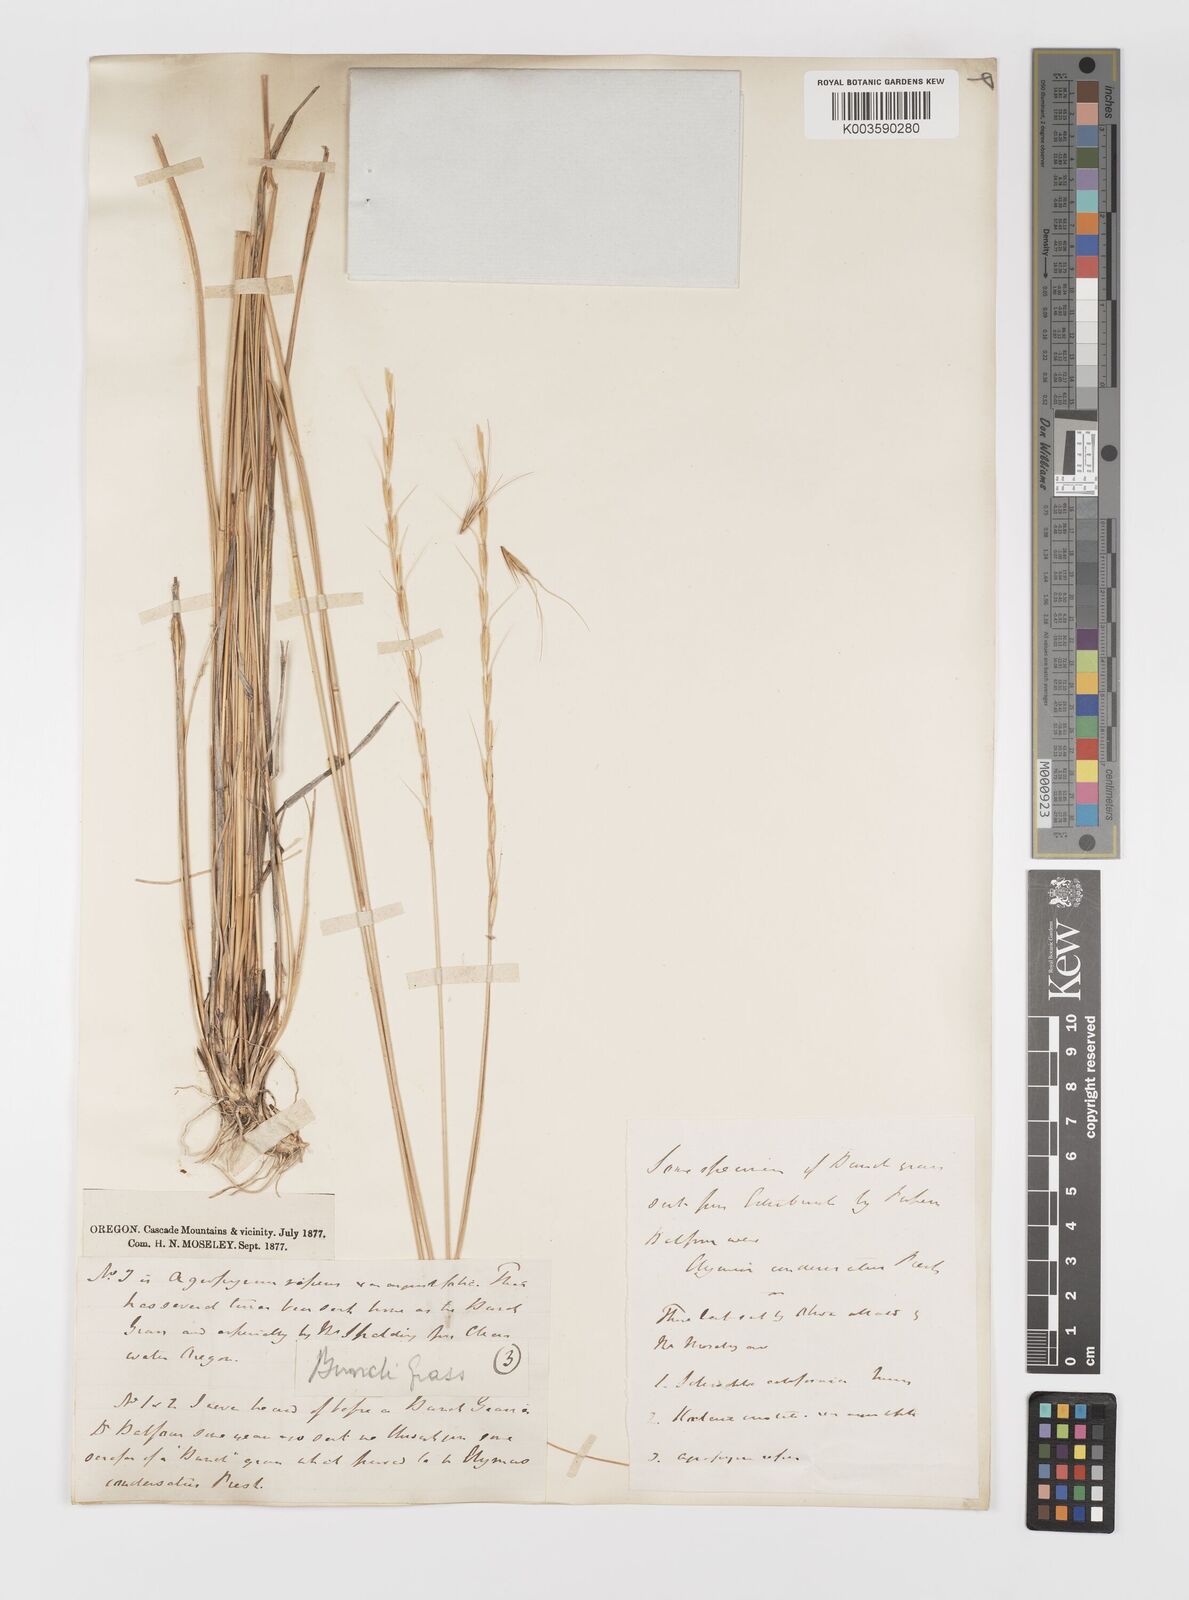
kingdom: Plantae
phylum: Tracheophyta
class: Liliopsida
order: Poales
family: Poaceae
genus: Elymus
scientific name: Elymus
